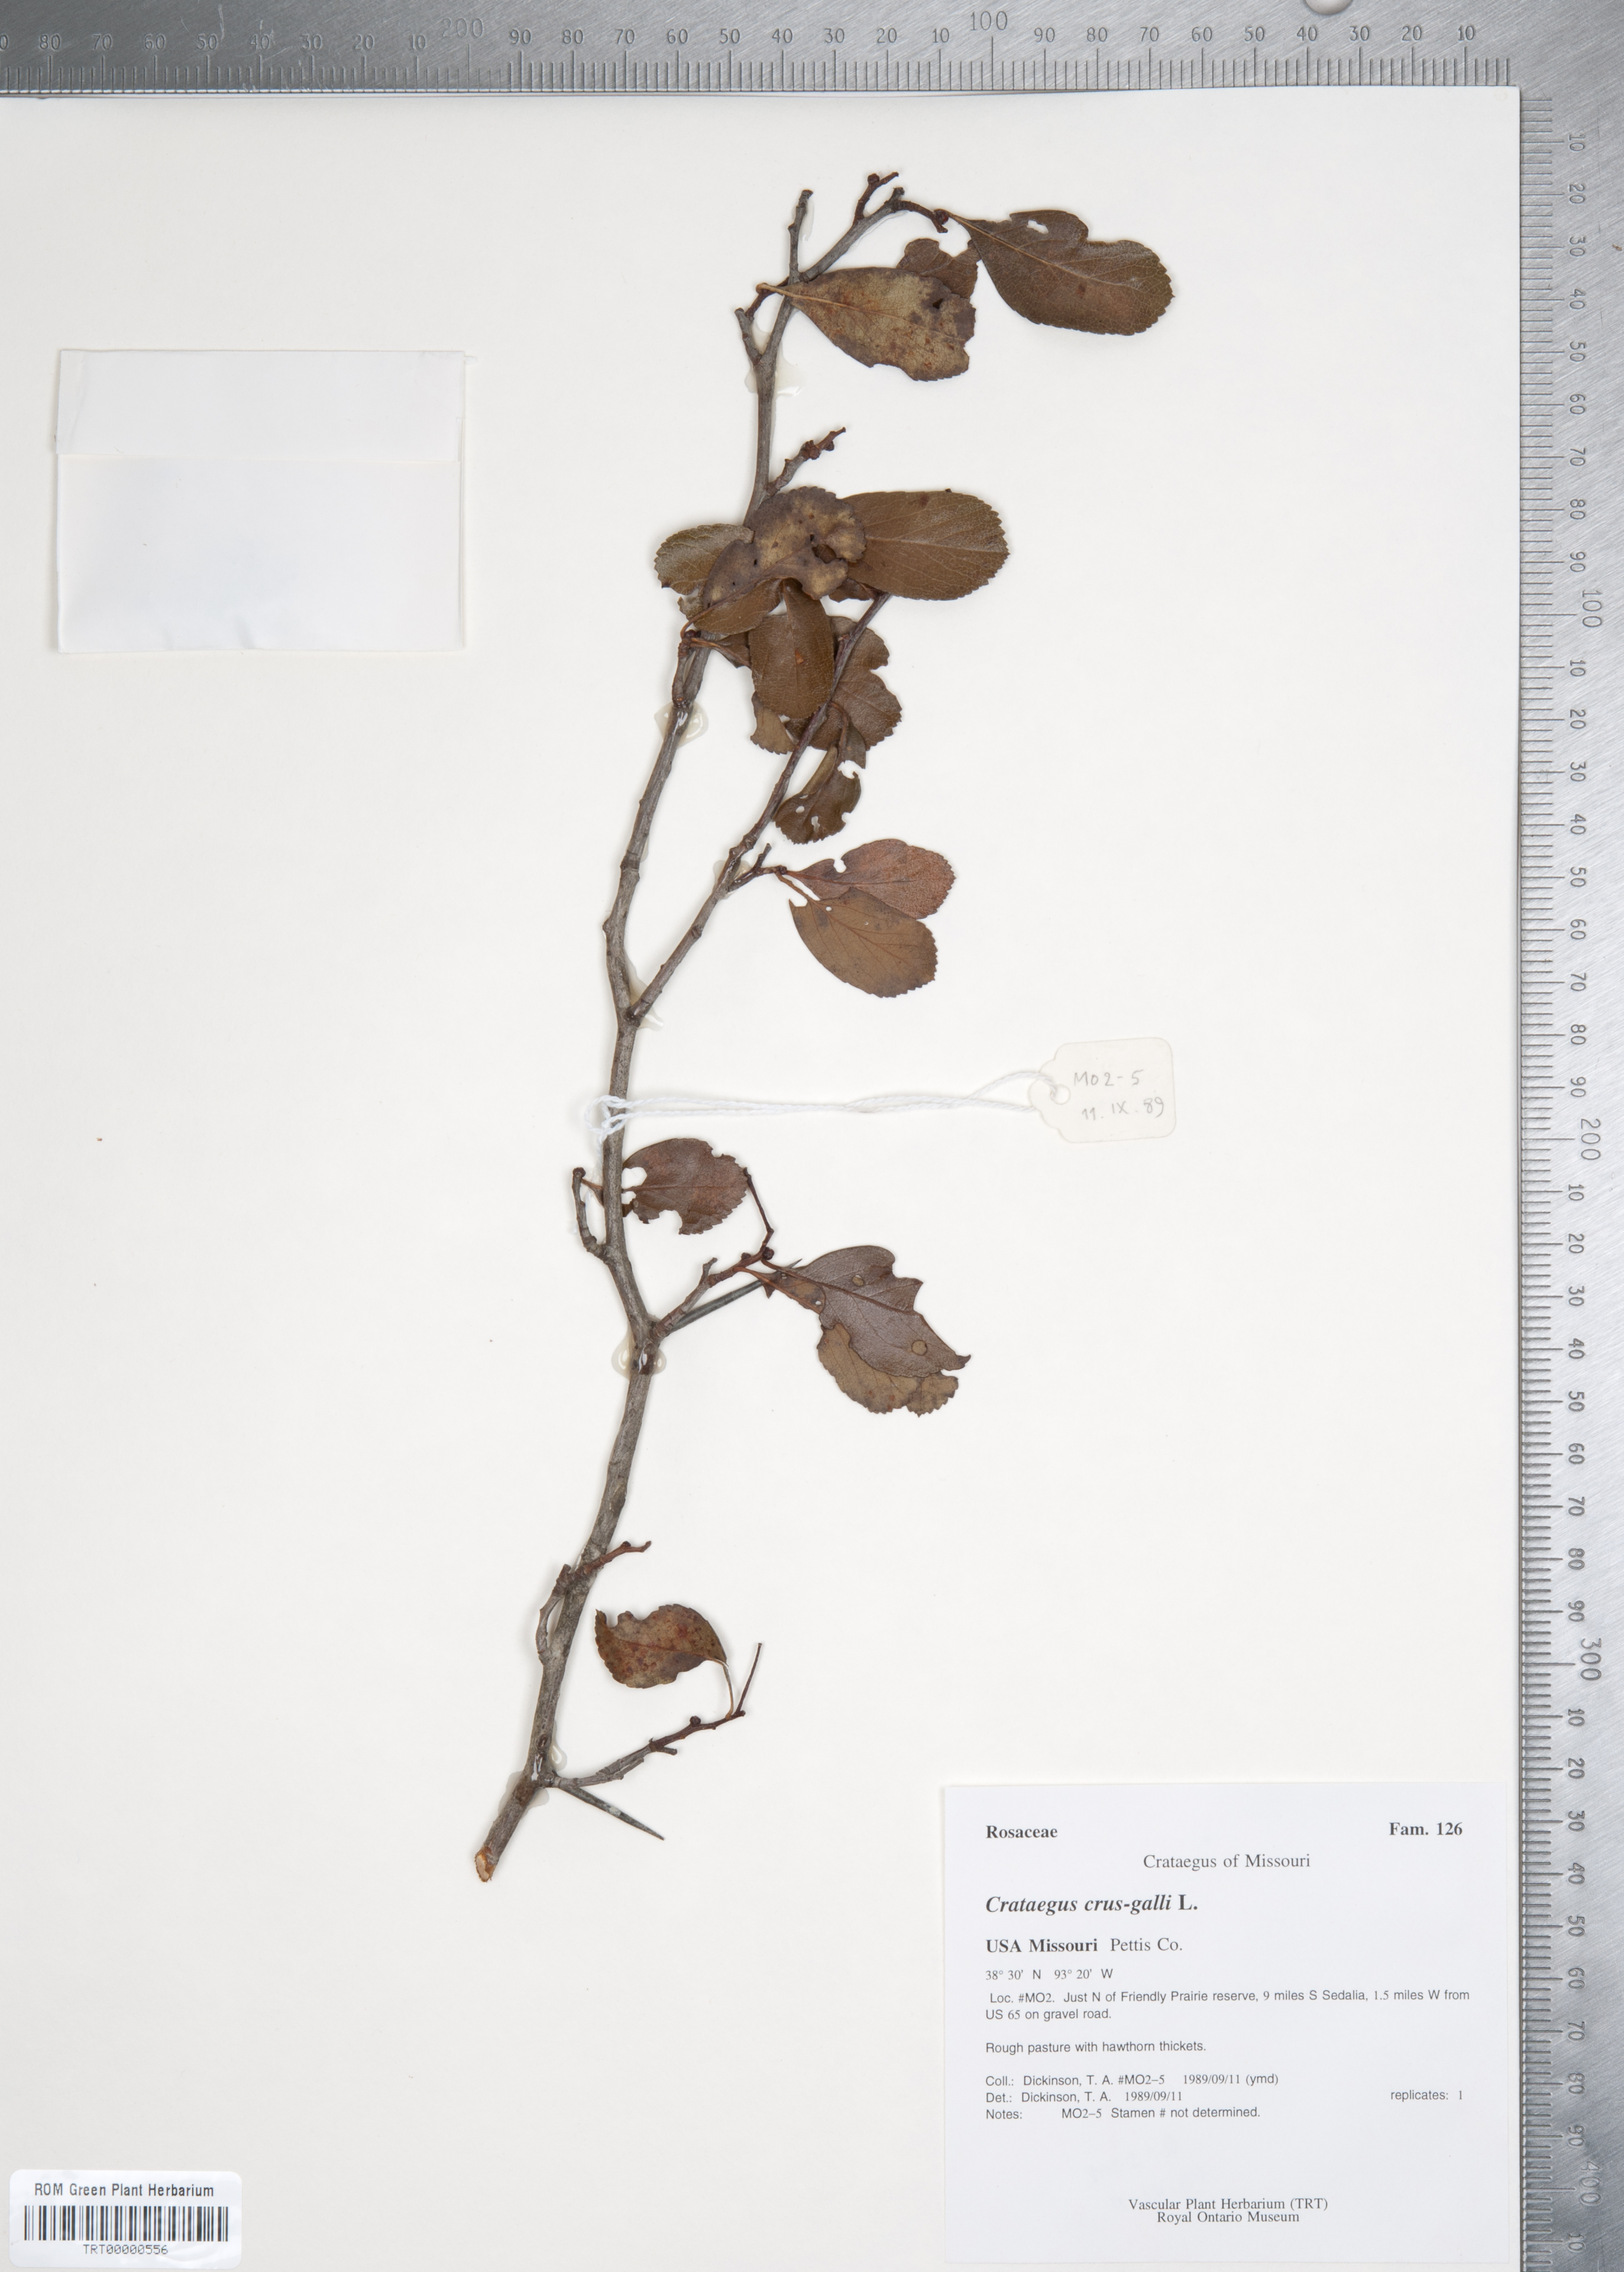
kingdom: Plantae
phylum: Tracheophyta
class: Magnoliopsida
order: Rosales
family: Rosaceae
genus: Crataegus
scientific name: Crataegus crus-galli
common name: Cockspurthorn
